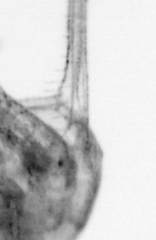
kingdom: Animalia
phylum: Arthropoda
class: Copepoda
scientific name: Copepoda
